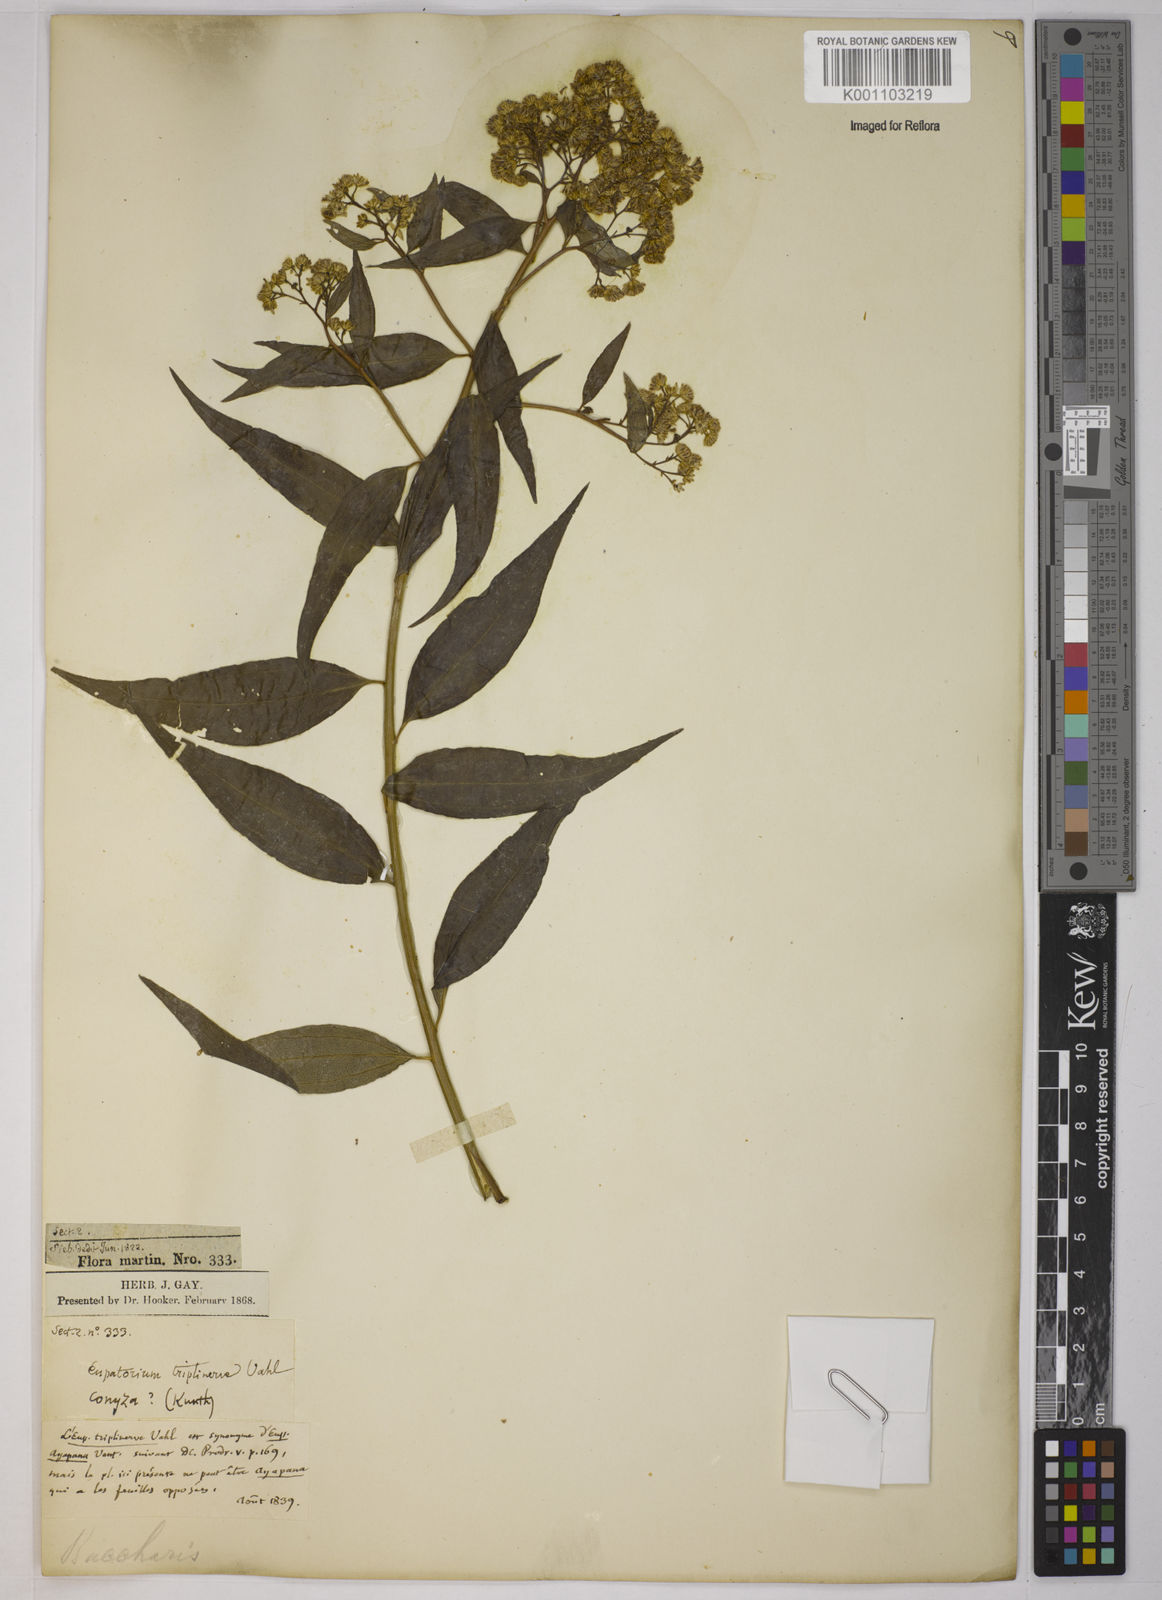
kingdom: Plantae
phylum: Tracheophyta
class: Magnoliopsida
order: Asterales
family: Asteraceae
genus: Baccharis
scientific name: Baccharis trinervis
